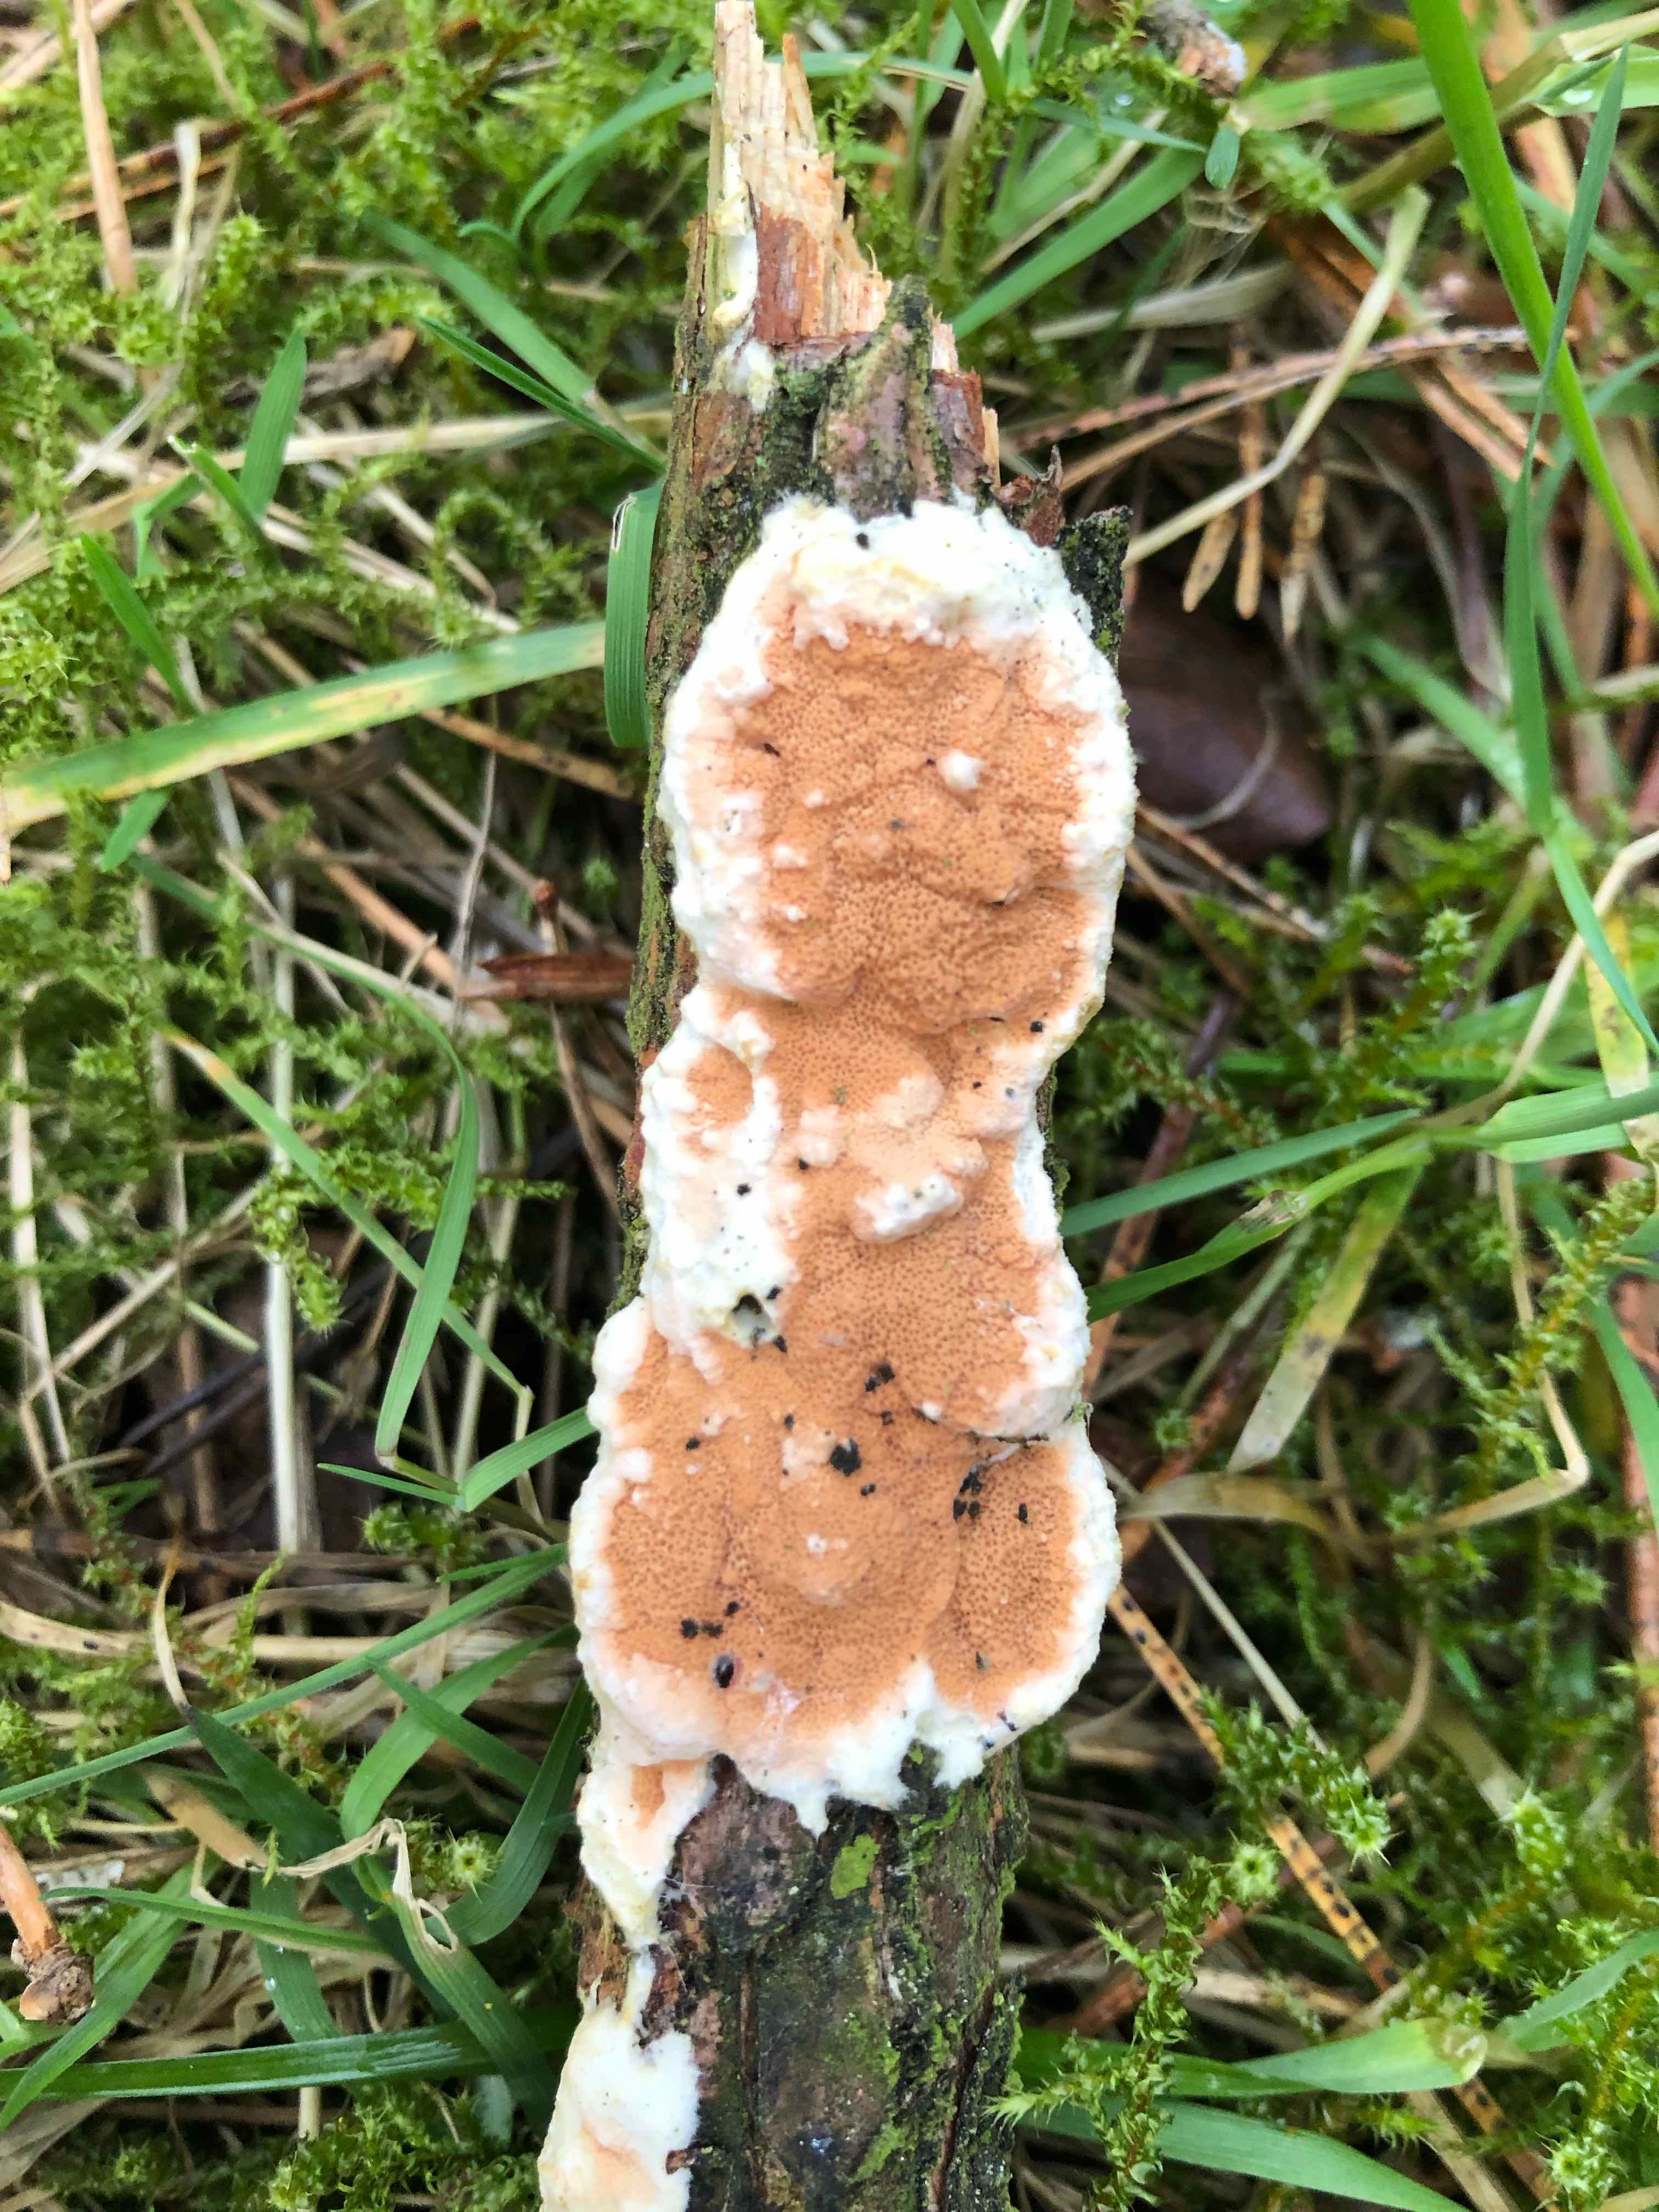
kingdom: Fungi
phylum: Basidiomycota
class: Agaricomycetes
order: Polyporales
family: Irpicaceae
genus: Meruliopsis
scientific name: Meruliopsis taxicola
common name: purpurbrun foldporesvamp
